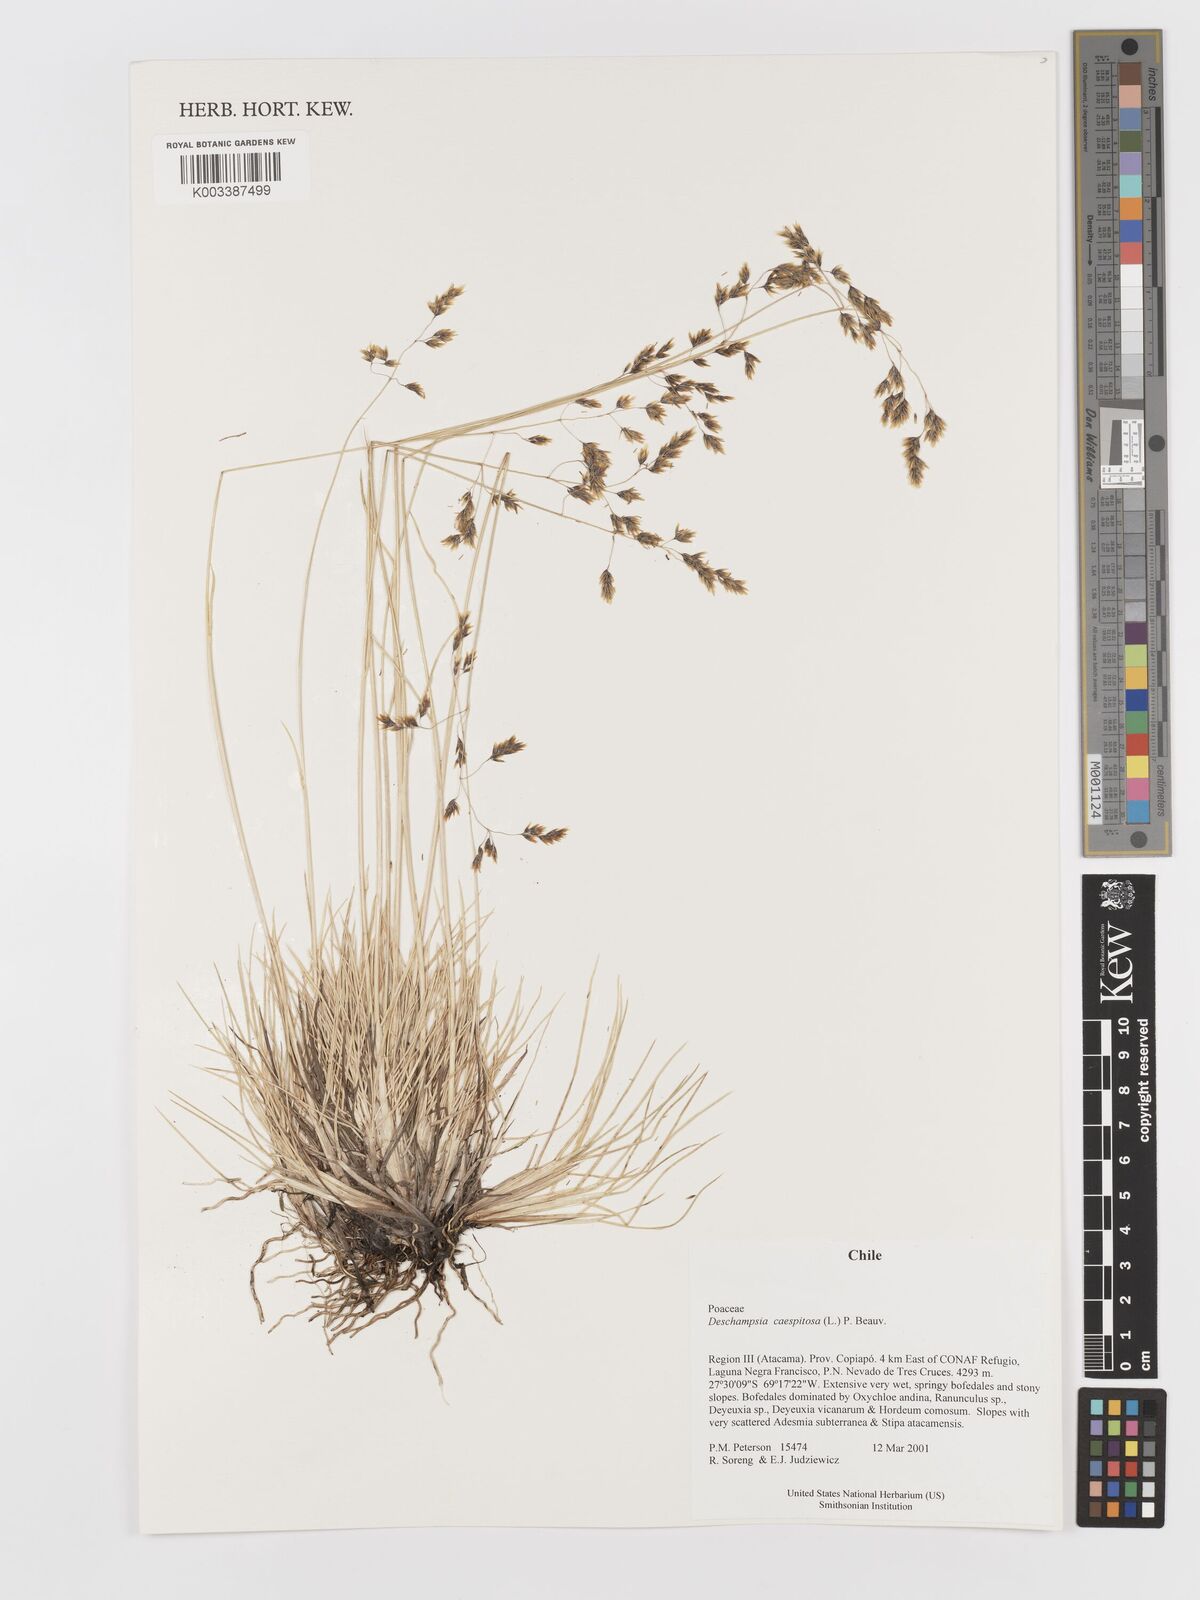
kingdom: Plantae
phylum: Tracheophyta
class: Liliopsida
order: Poales
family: Poaceae
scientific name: Poaceae
